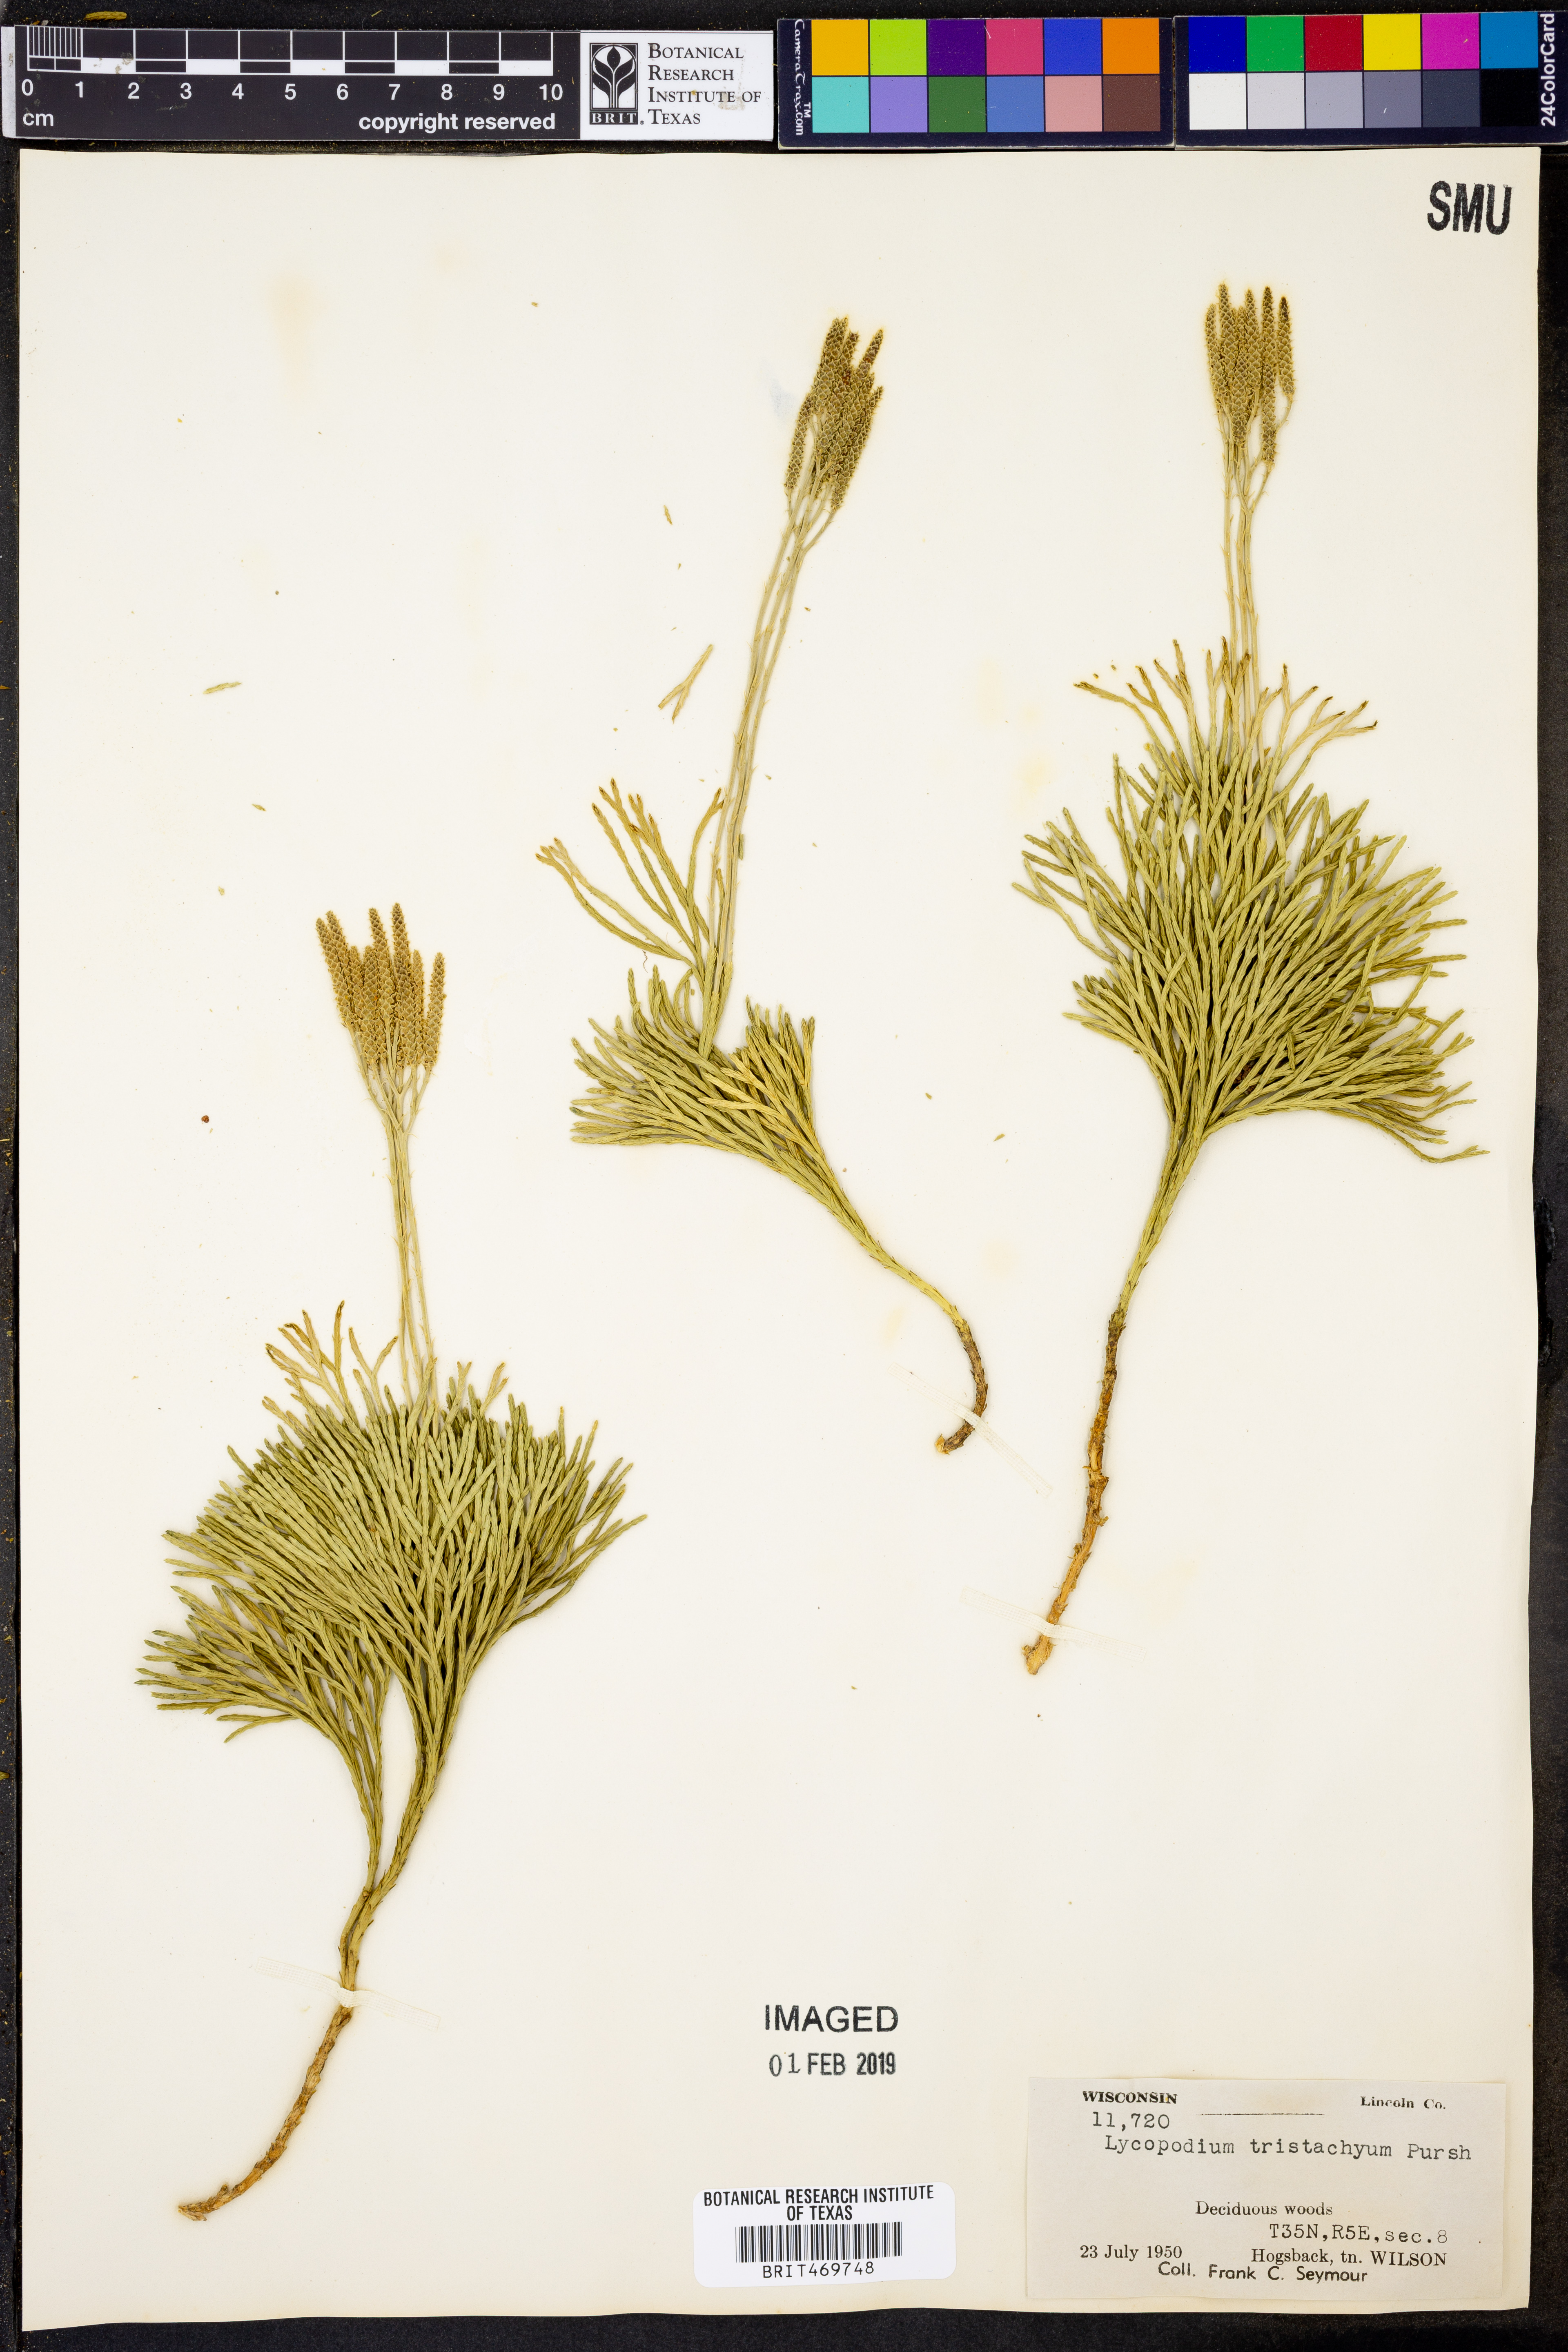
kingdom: Plantae
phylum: Tracheophyta
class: Lycopodiopsida
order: Lycopodiales
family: Lycopodiaceae
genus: Diphasiastrum
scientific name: Diphasiastrum tristachyum
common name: Blue ground-cedar
